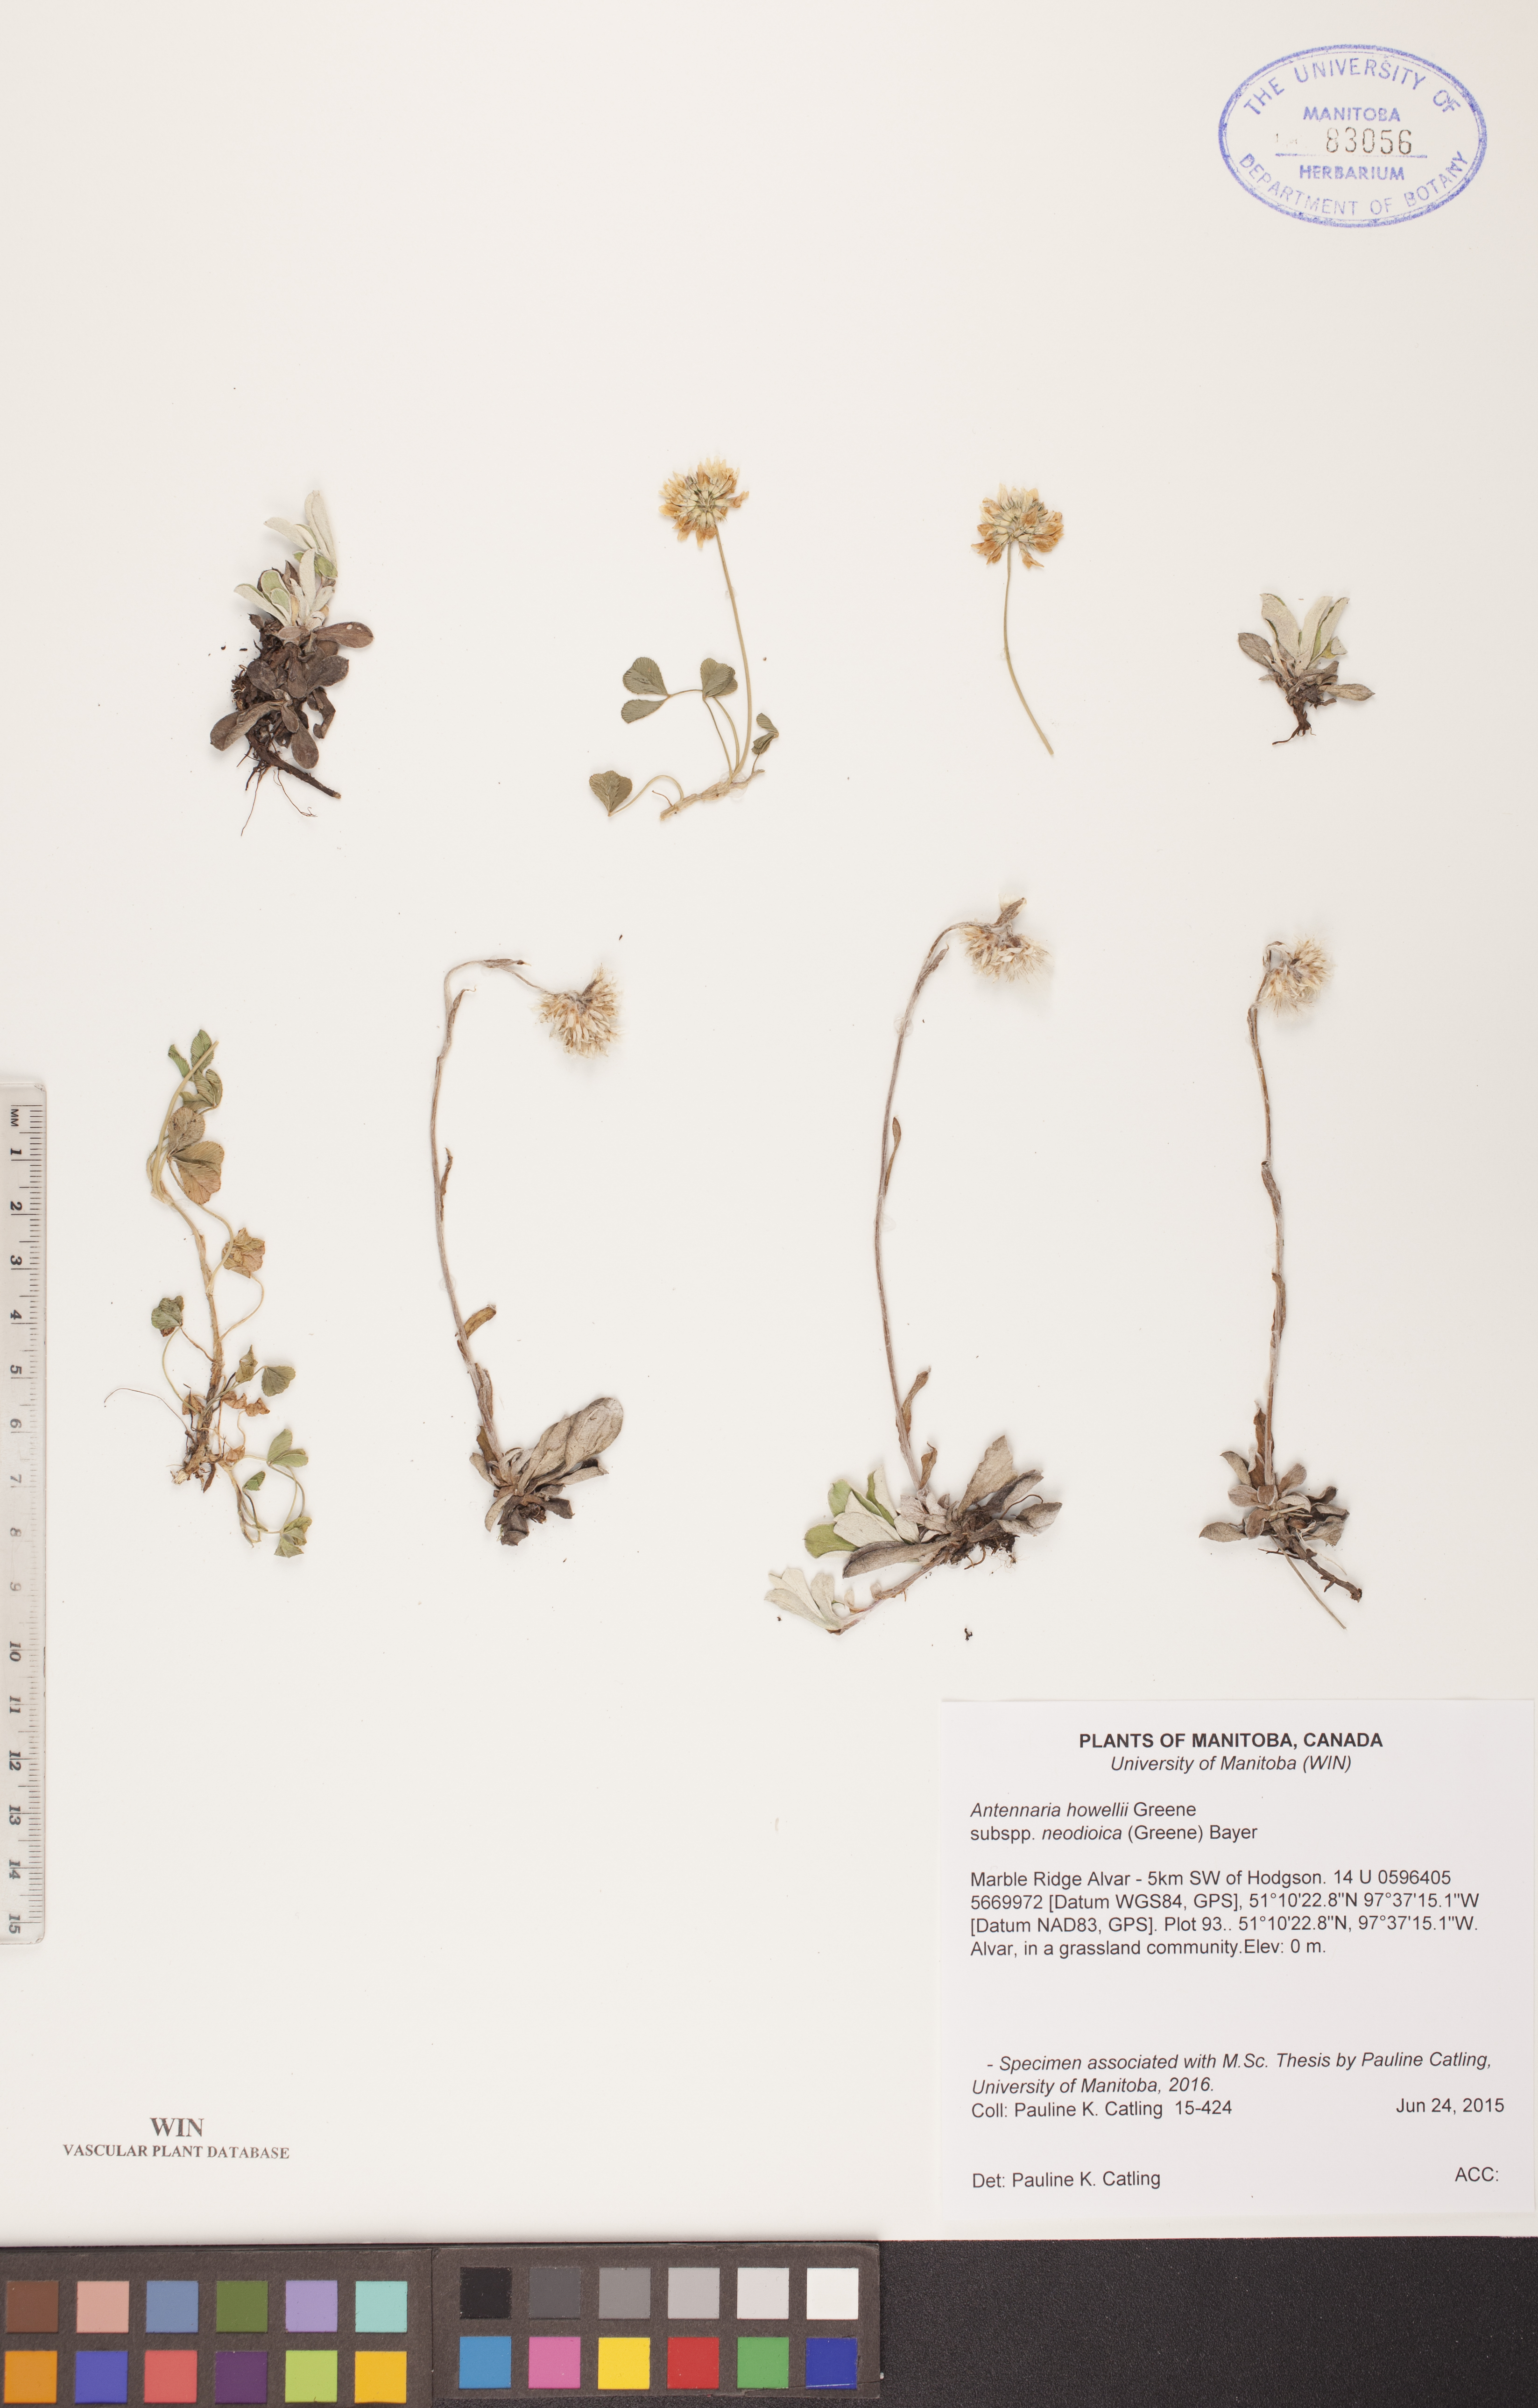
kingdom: Plantae
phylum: Tracheophyta
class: Magnoliopsida
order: Asterales
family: Asteraceae
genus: Antennaria
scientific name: Antennaria howellii
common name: Howell's pussytoes
